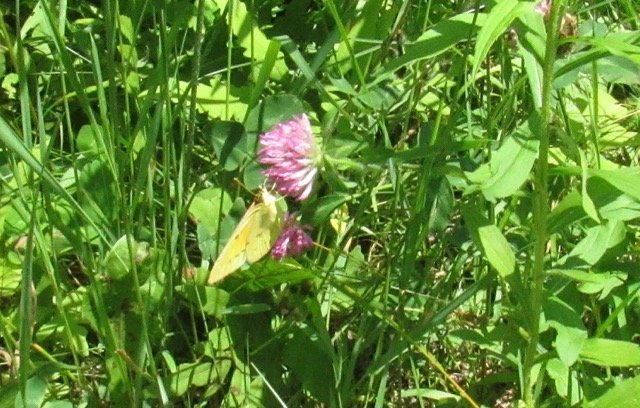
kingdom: Animalia
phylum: Arthropoda
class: Insecta
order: Lepidoptera
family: Pieridae
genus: Colias
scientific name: Colias eurytheme
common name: Orange Sulphur
